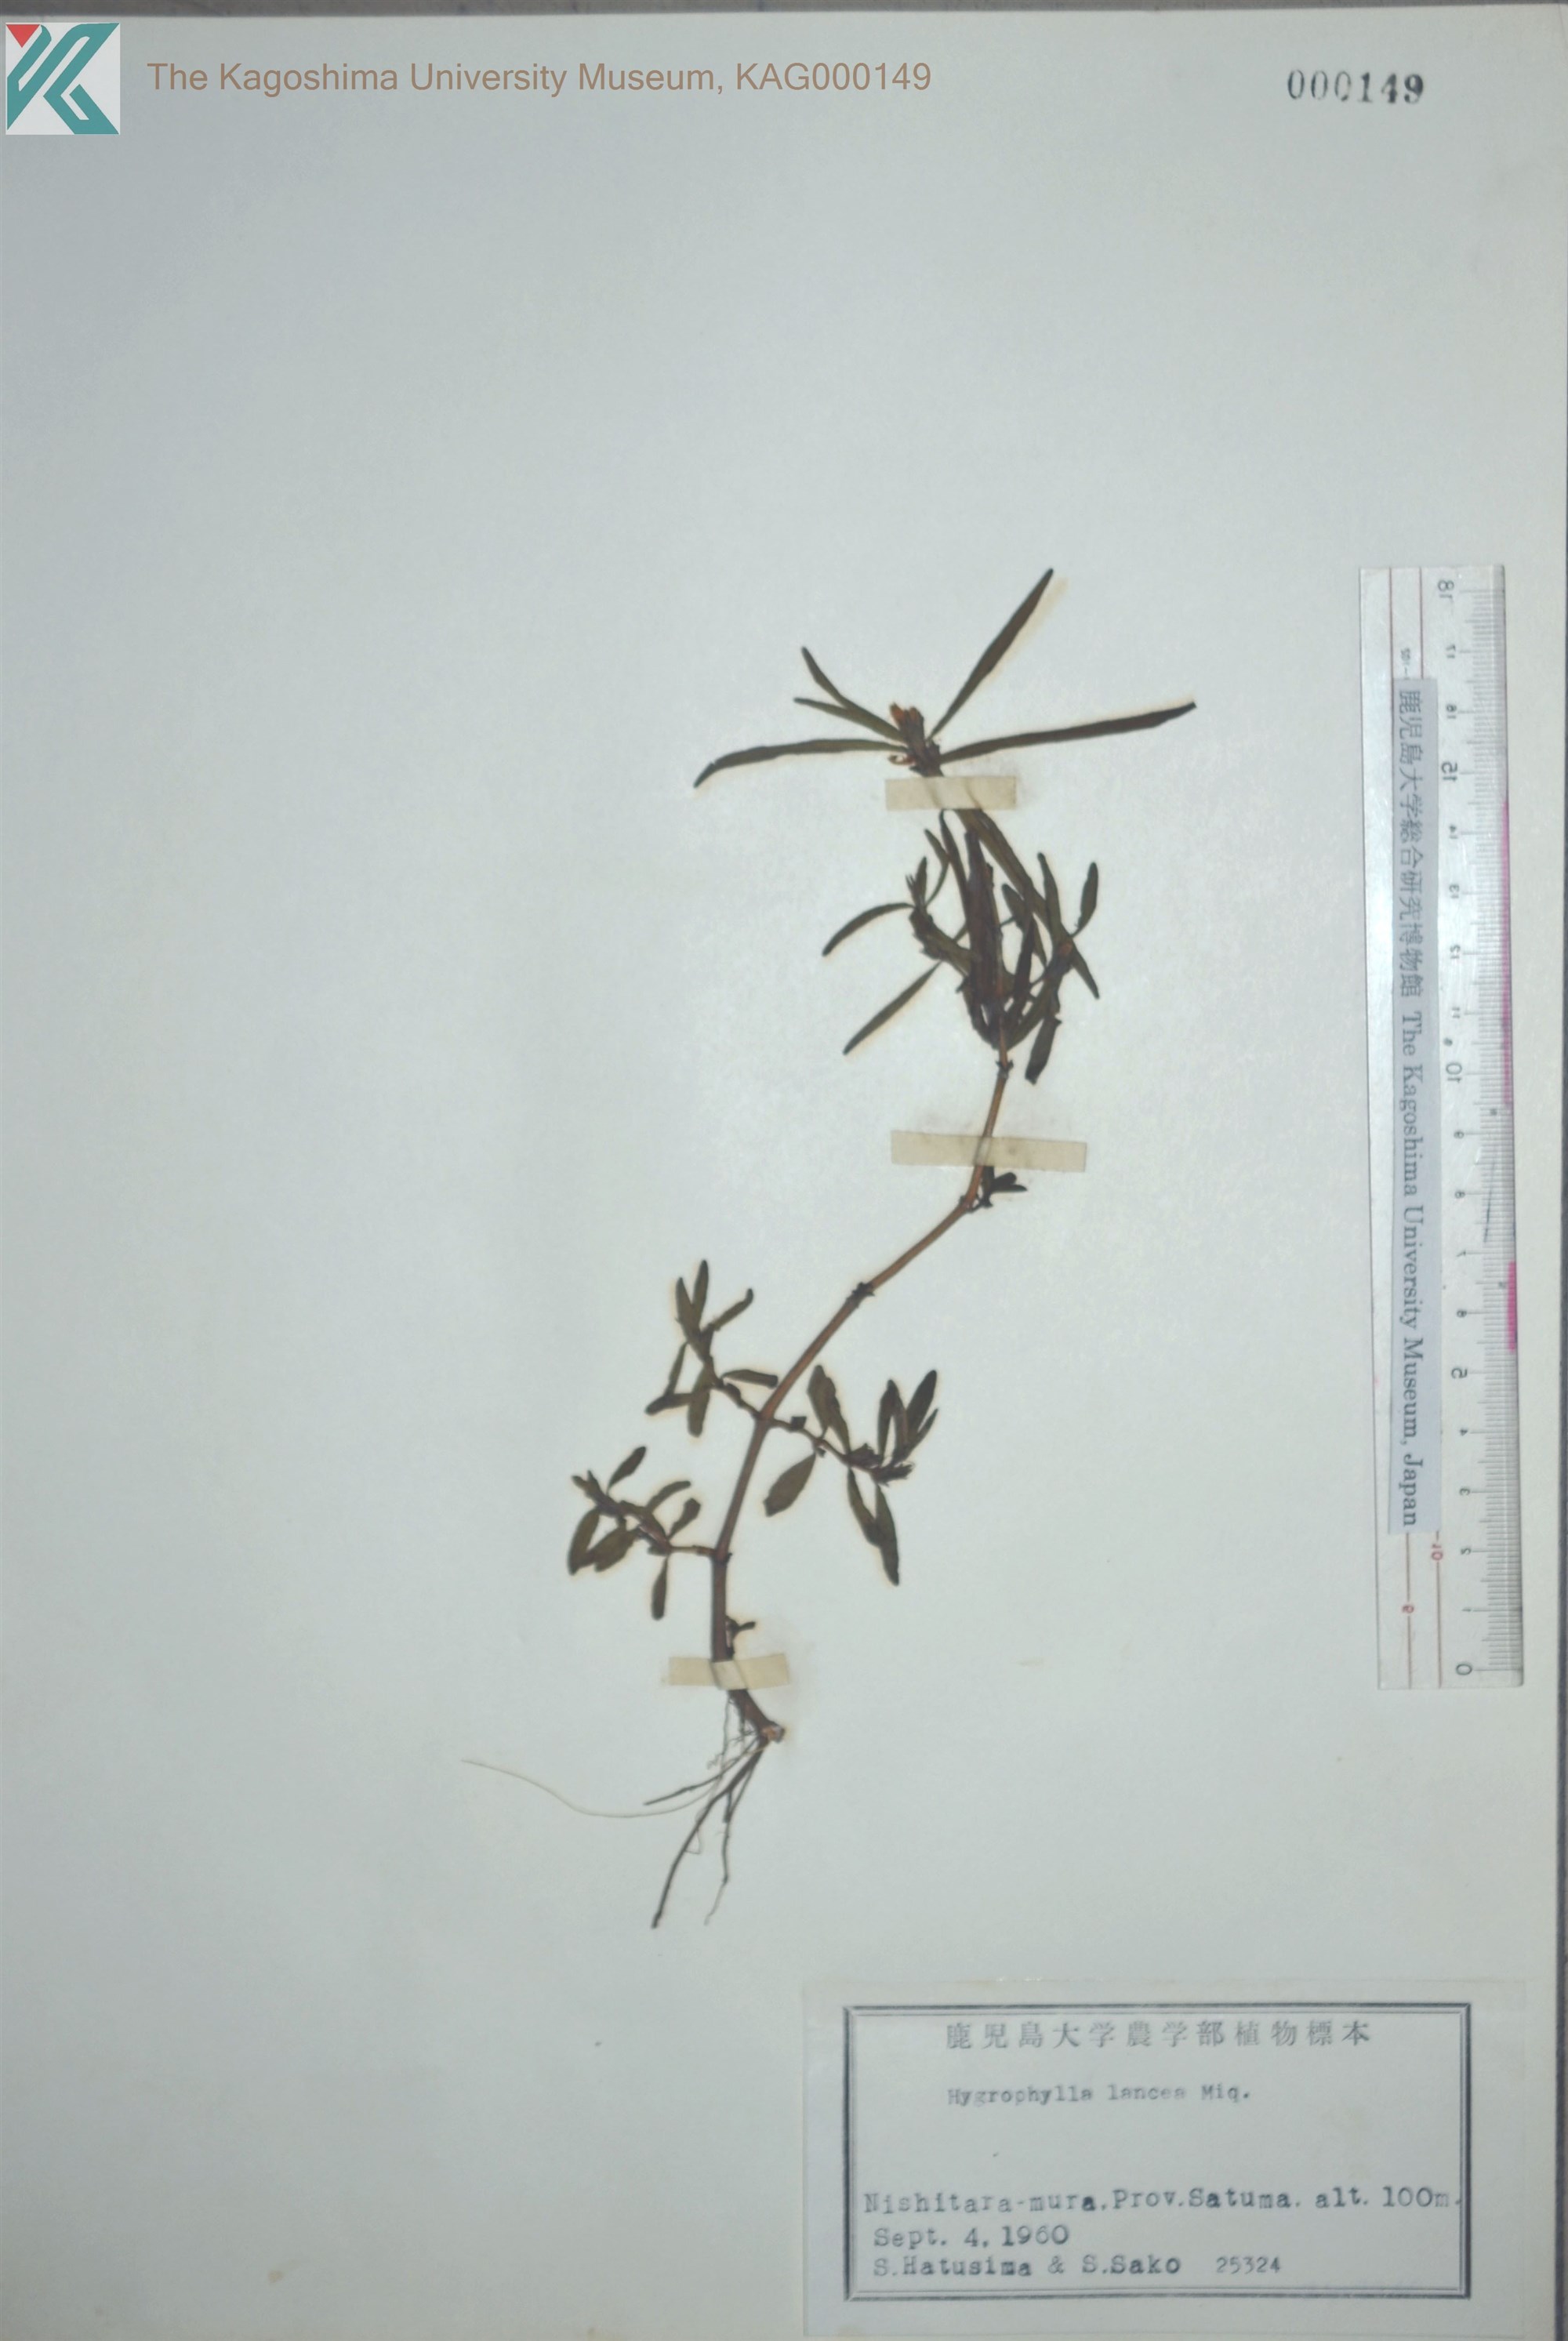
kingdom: Plantae
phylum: Tracheophyta
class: Magnoliopsida
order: Lamiales
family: Acanthaceae
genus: Hygrophila
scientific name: Hygrophila ringens
